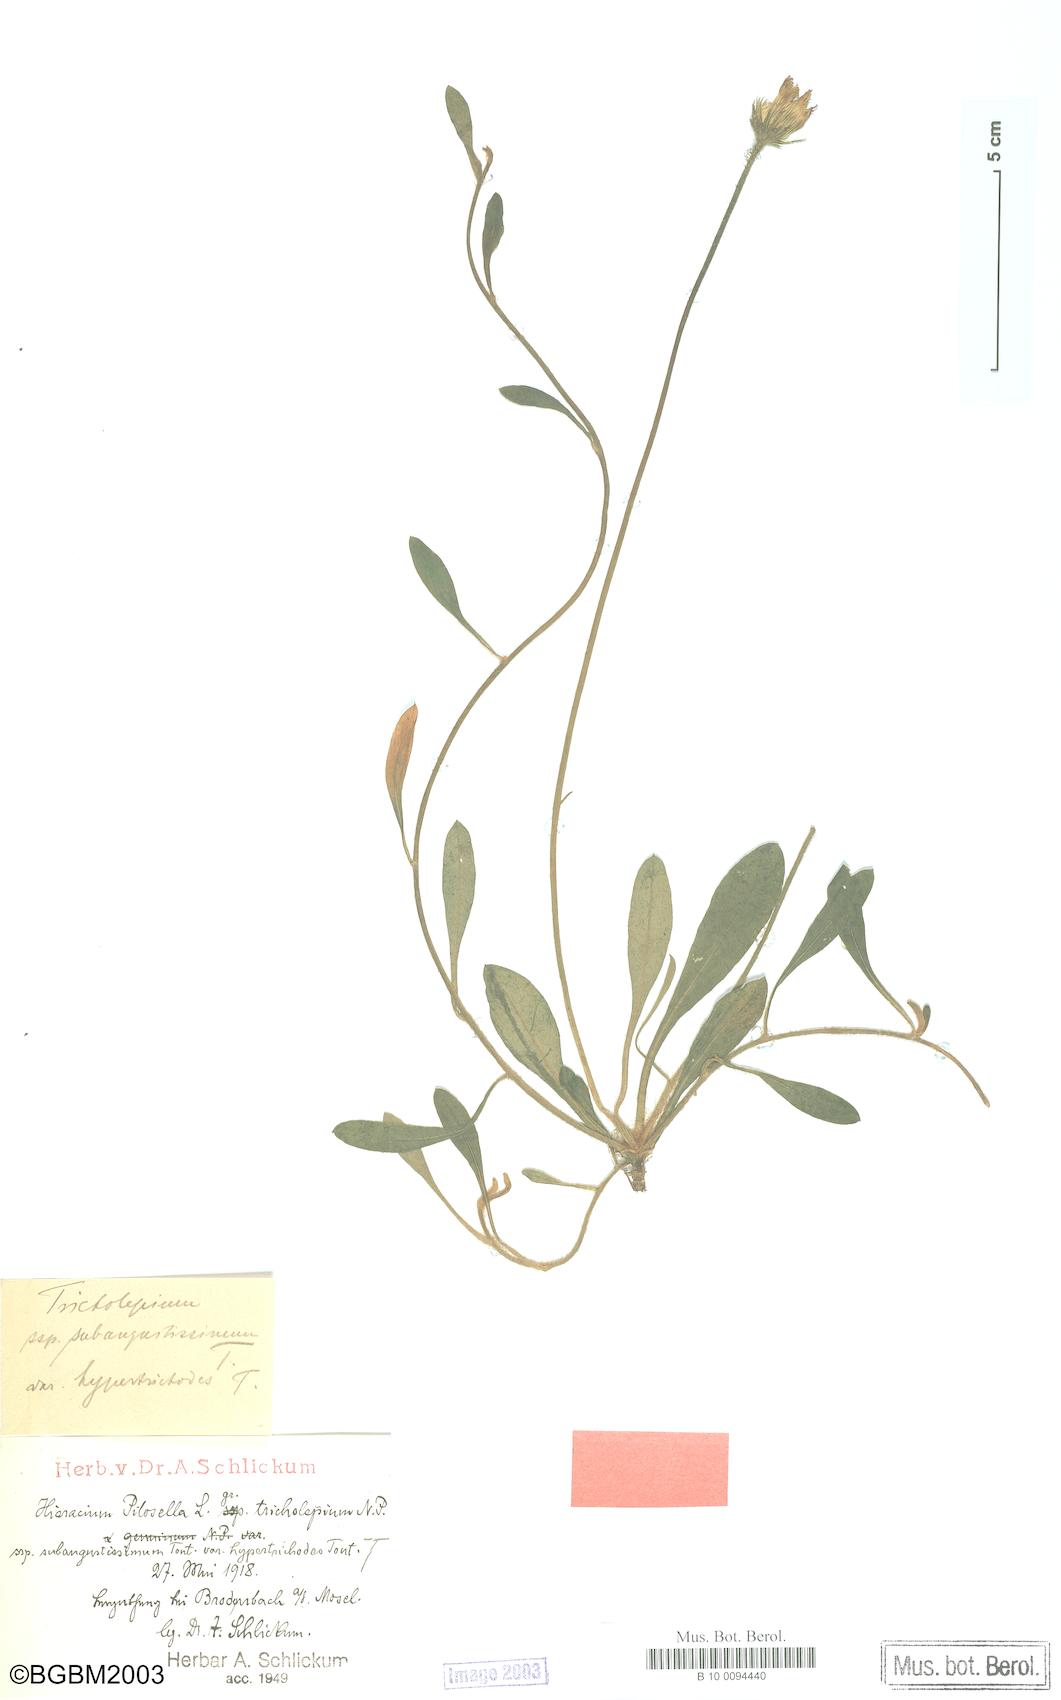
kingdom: Plantae
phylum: Tracheophyta
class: Magnoliopsida
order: Asterales
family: Asteraceae
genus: Pilosella
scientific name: Pilosella officinarum
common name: Mouse-ear hawkweed
